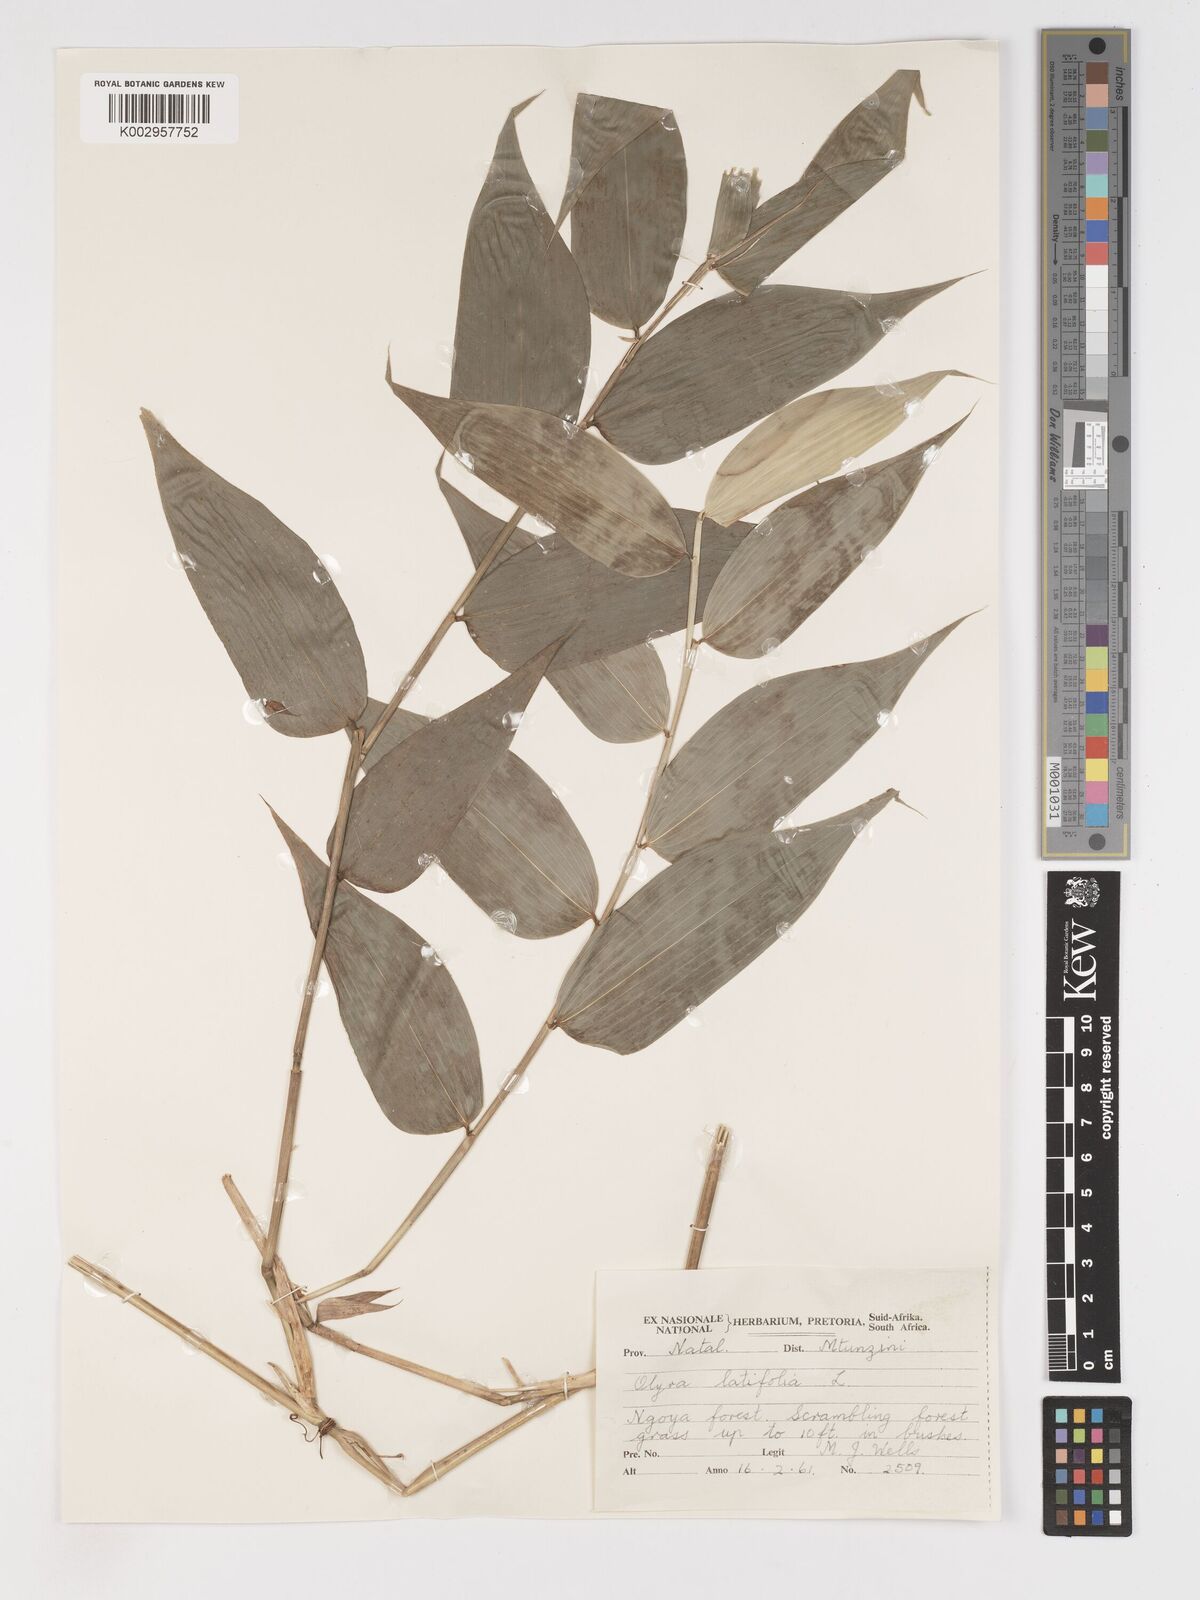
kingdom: Plantae
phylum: Tracheophyta
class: Liliopsida
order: Poales
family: Poaceae
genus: Olyra
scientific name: Olyra latifolia
